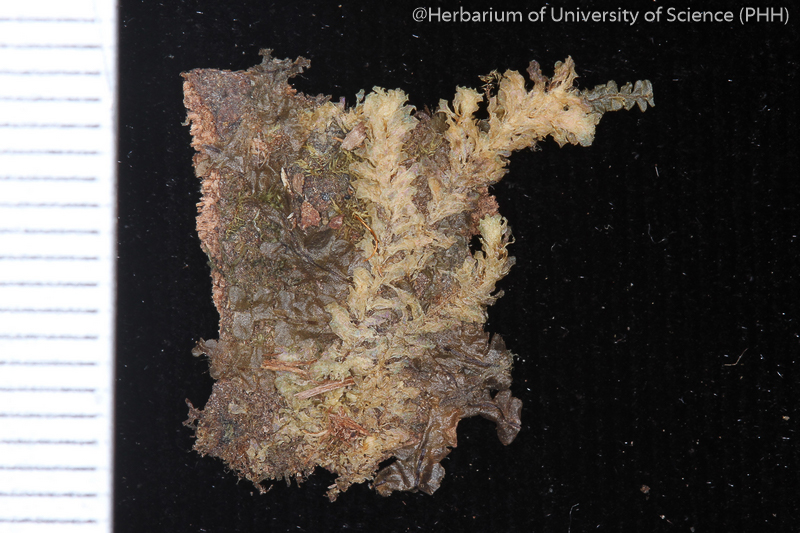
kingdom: Plantae
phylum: Bryophyta
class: Bryopsida
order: Hookeriales
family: Daltoniaceae
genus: Distichophyllum
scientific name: Distichophyllum mittenii
